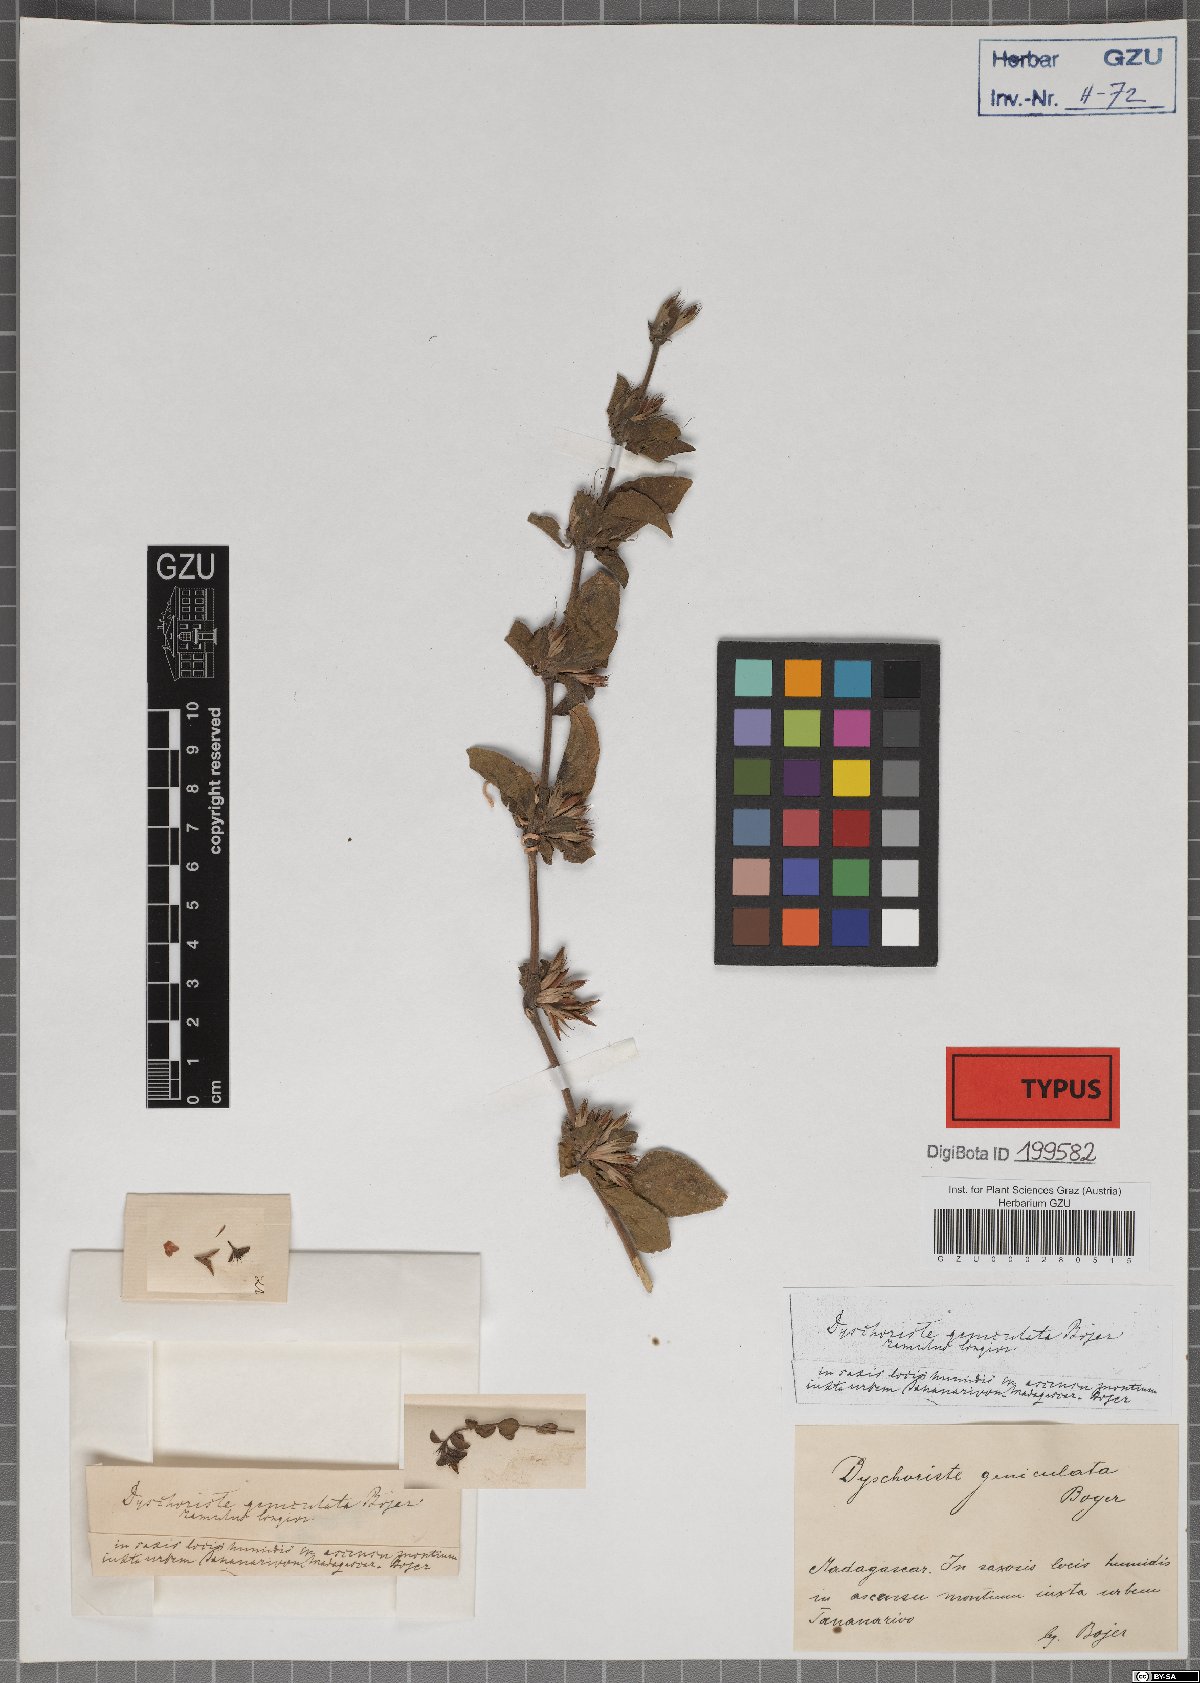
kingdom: Plantae
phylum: Tracheophyta
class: Magnoliopsida
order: Lamiales
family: Acanthaceae
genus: Dyschoriste
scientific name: Dyschoriste geniculata
